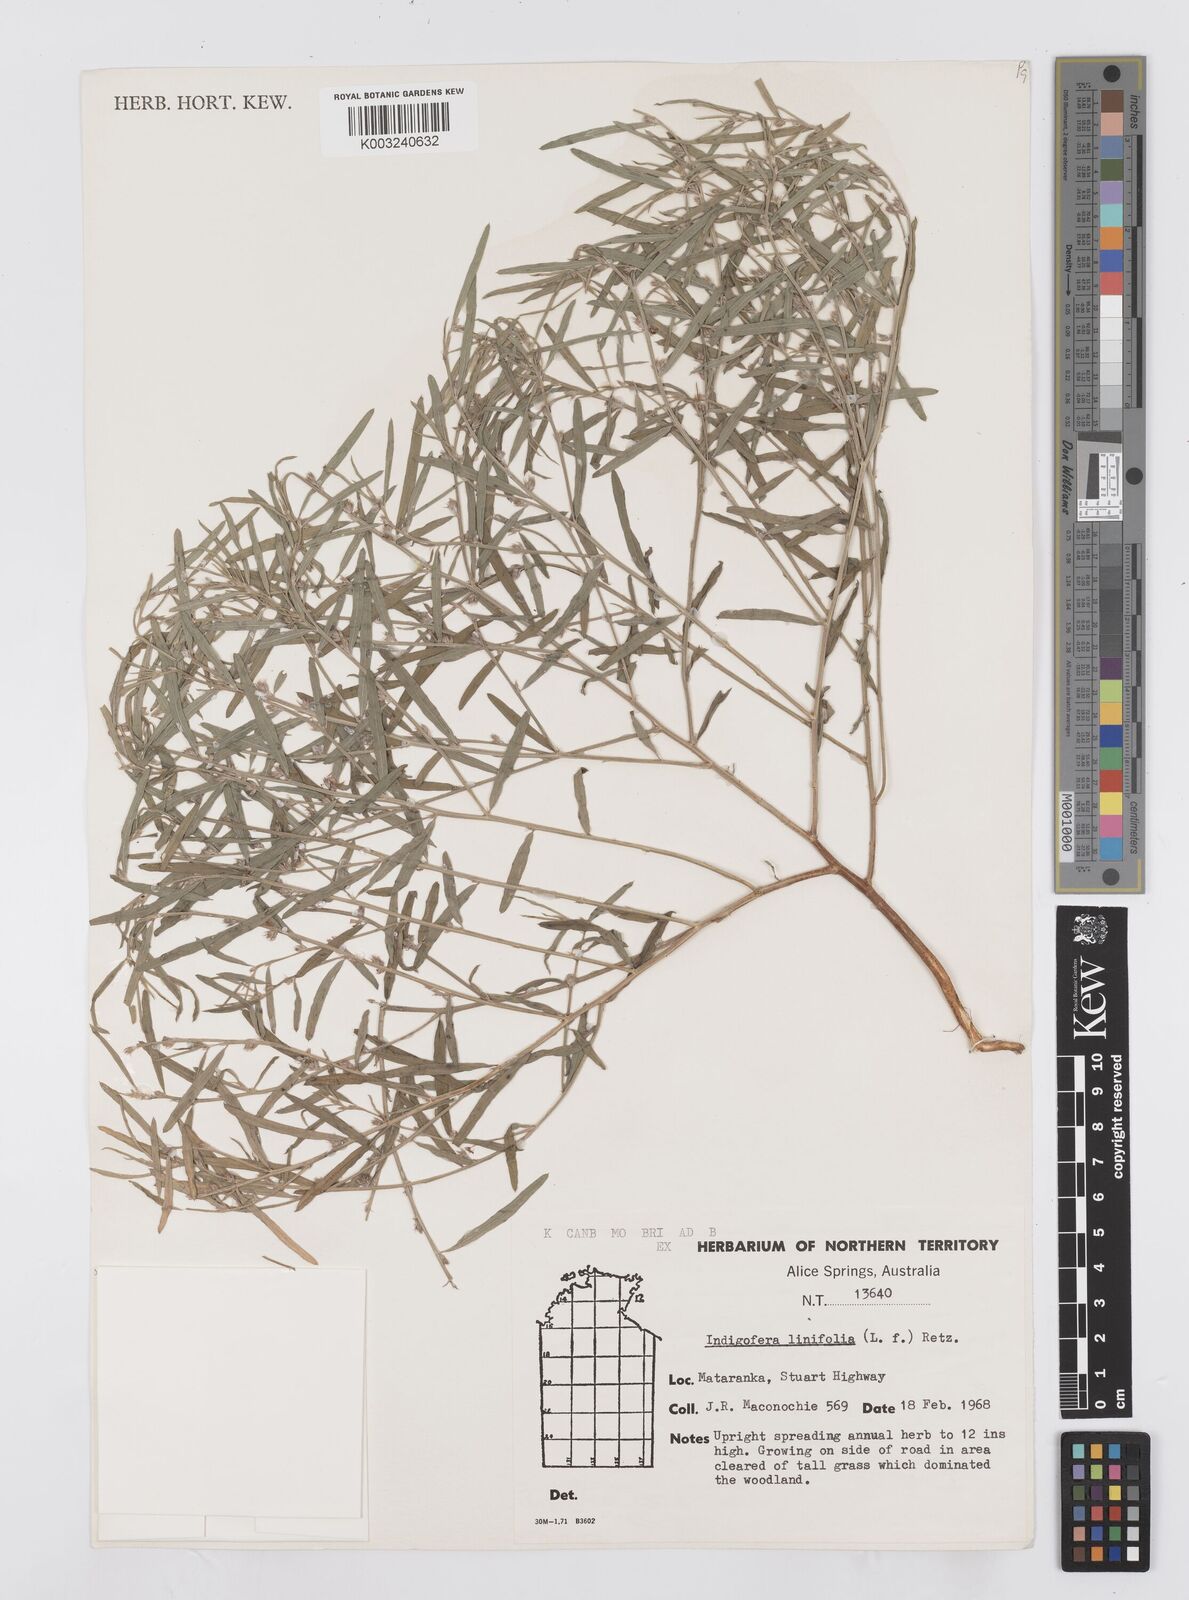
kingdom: Plantae
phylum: Tracheophyta
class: Magnoliopsida
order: Fabales
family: Fabaceae
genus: Indigofera
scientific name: Indigofera linifolia
